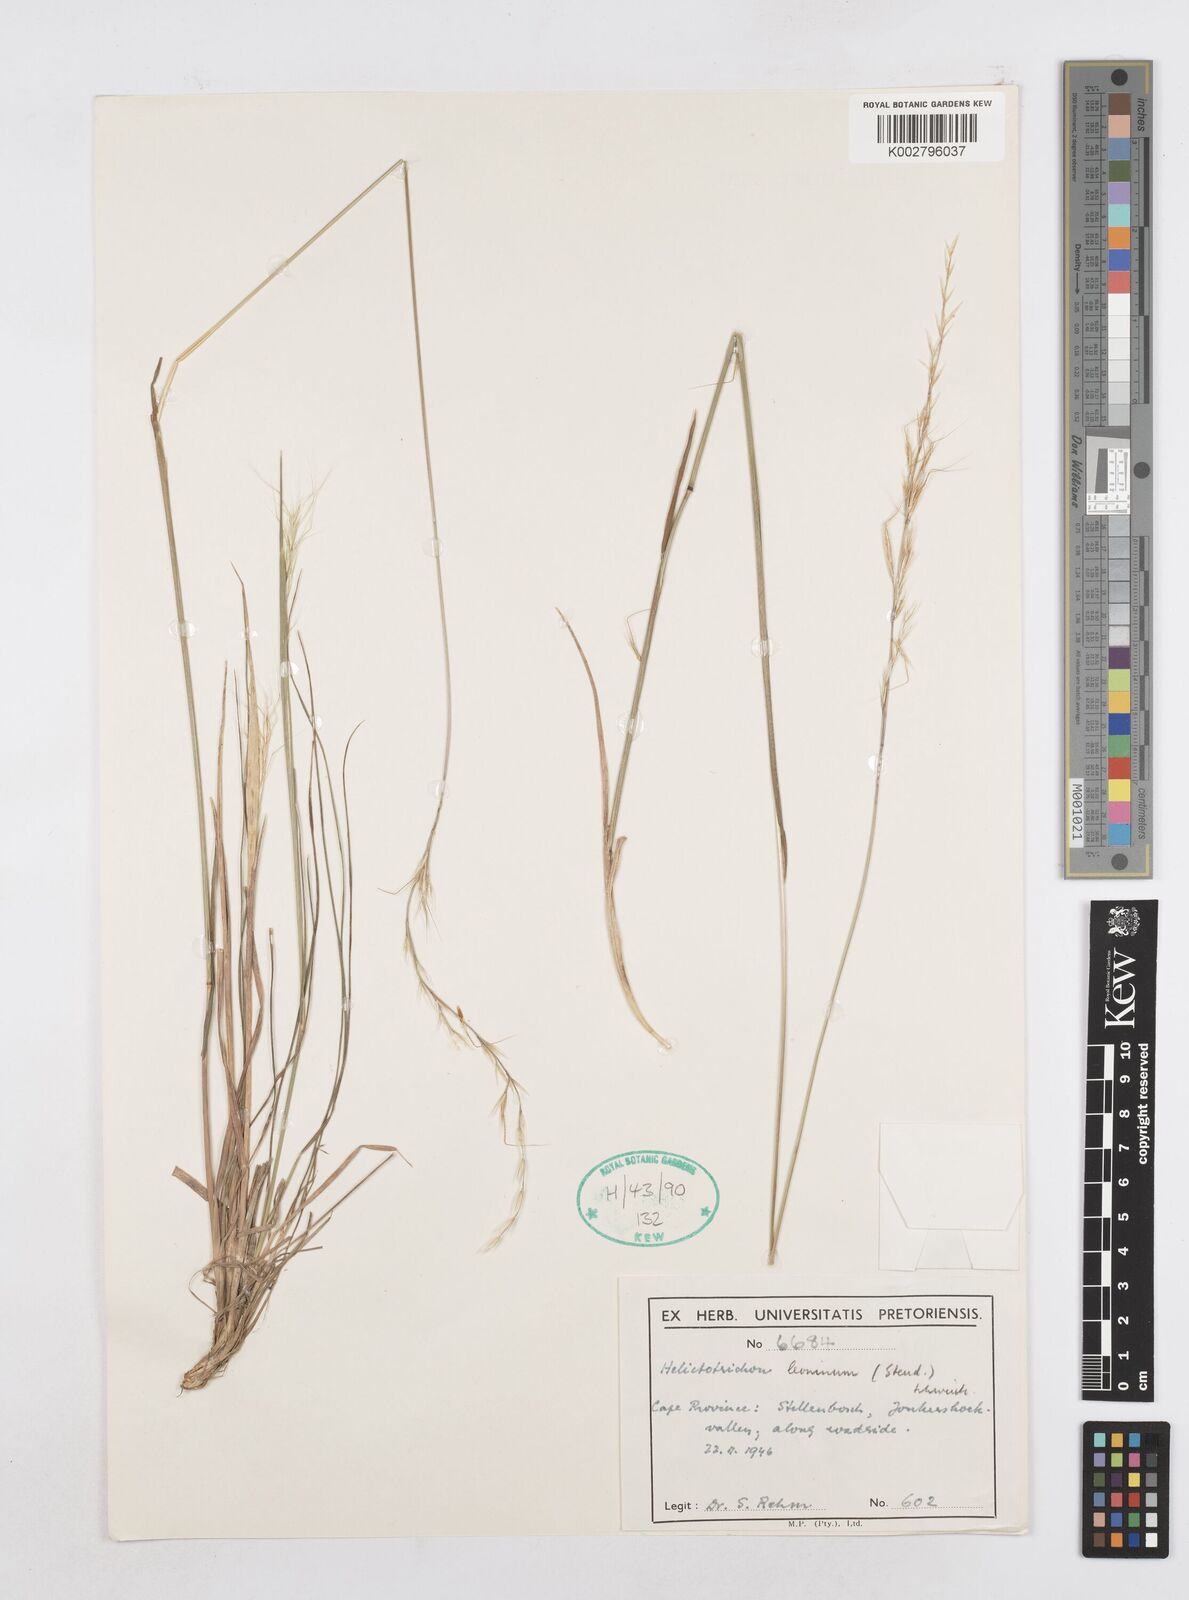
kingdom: Plantae
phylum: Tracheophyta
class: Liliopsida
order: Poales
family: Poaceae
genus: Trisetopsis
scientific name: Trisetopsis leonina
